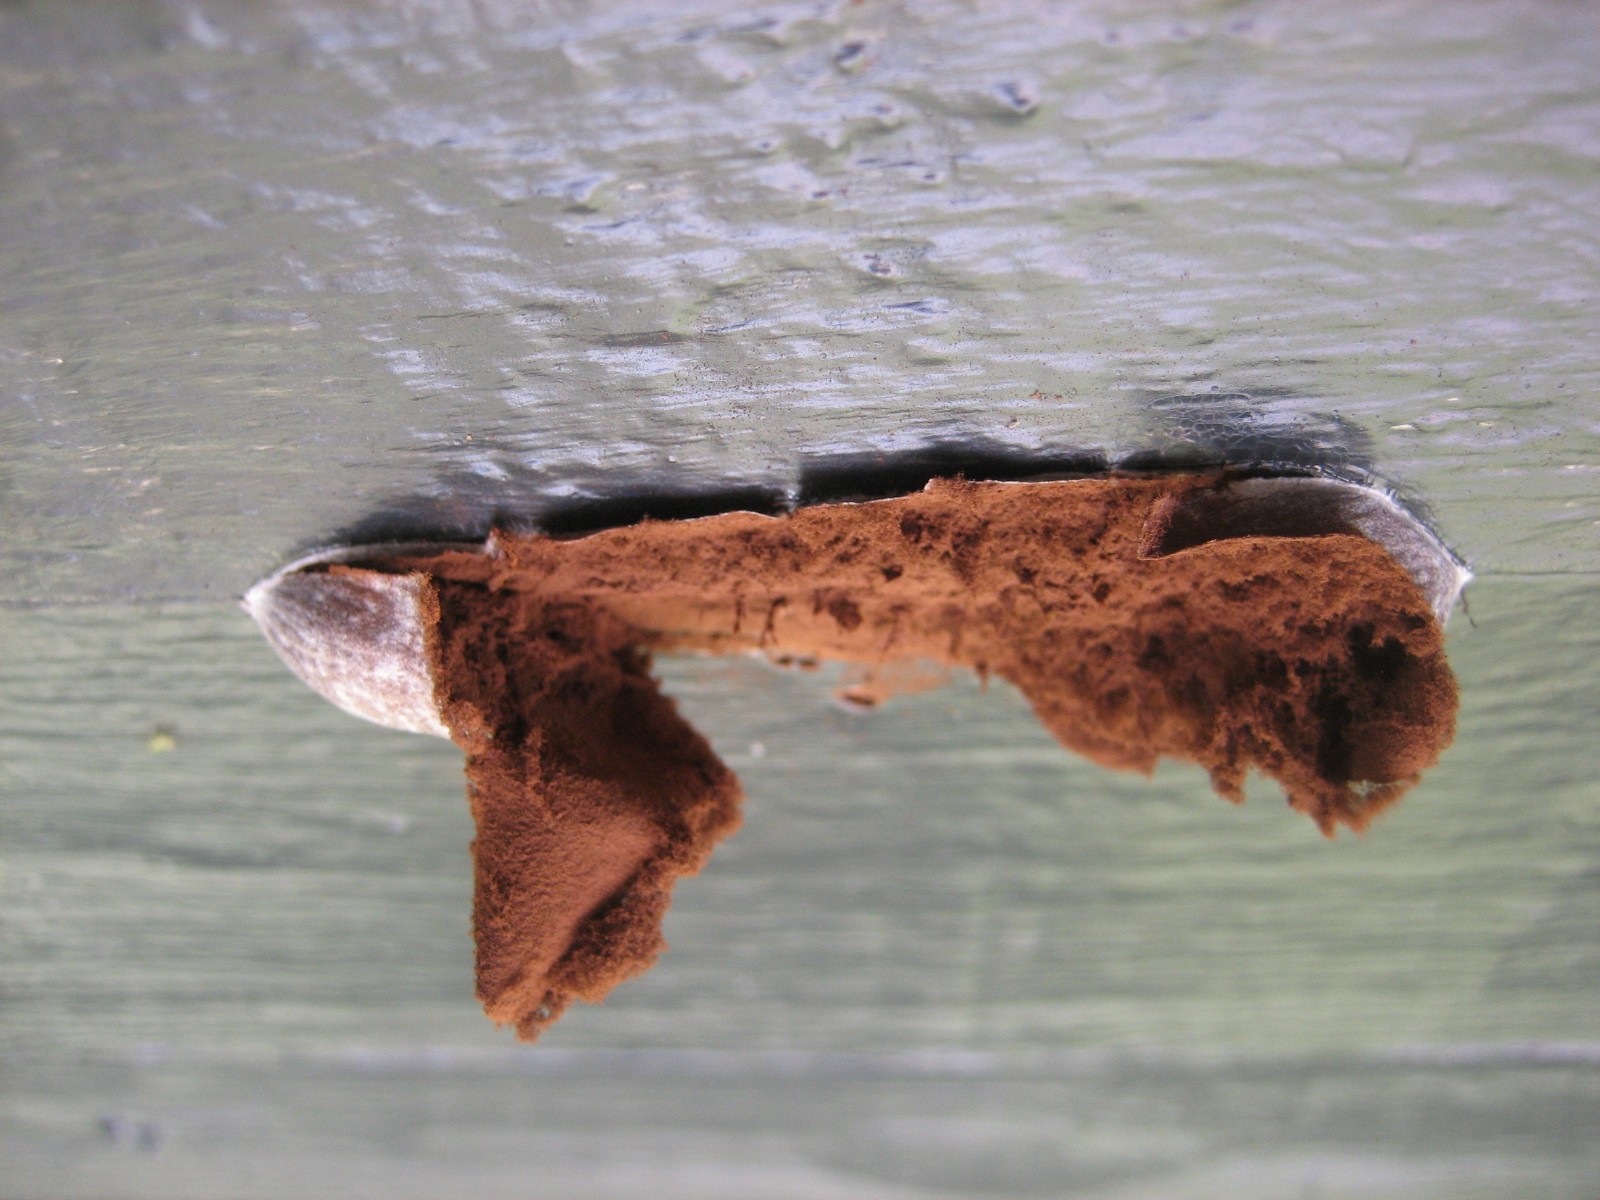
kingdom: Protozoa
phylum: Mycetozoa
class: Myxomycetes
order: Cribrariales
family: Tubiferaceae
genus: Reticularia
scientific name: Reticularia lycoperdon
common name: skinnende støvpude
